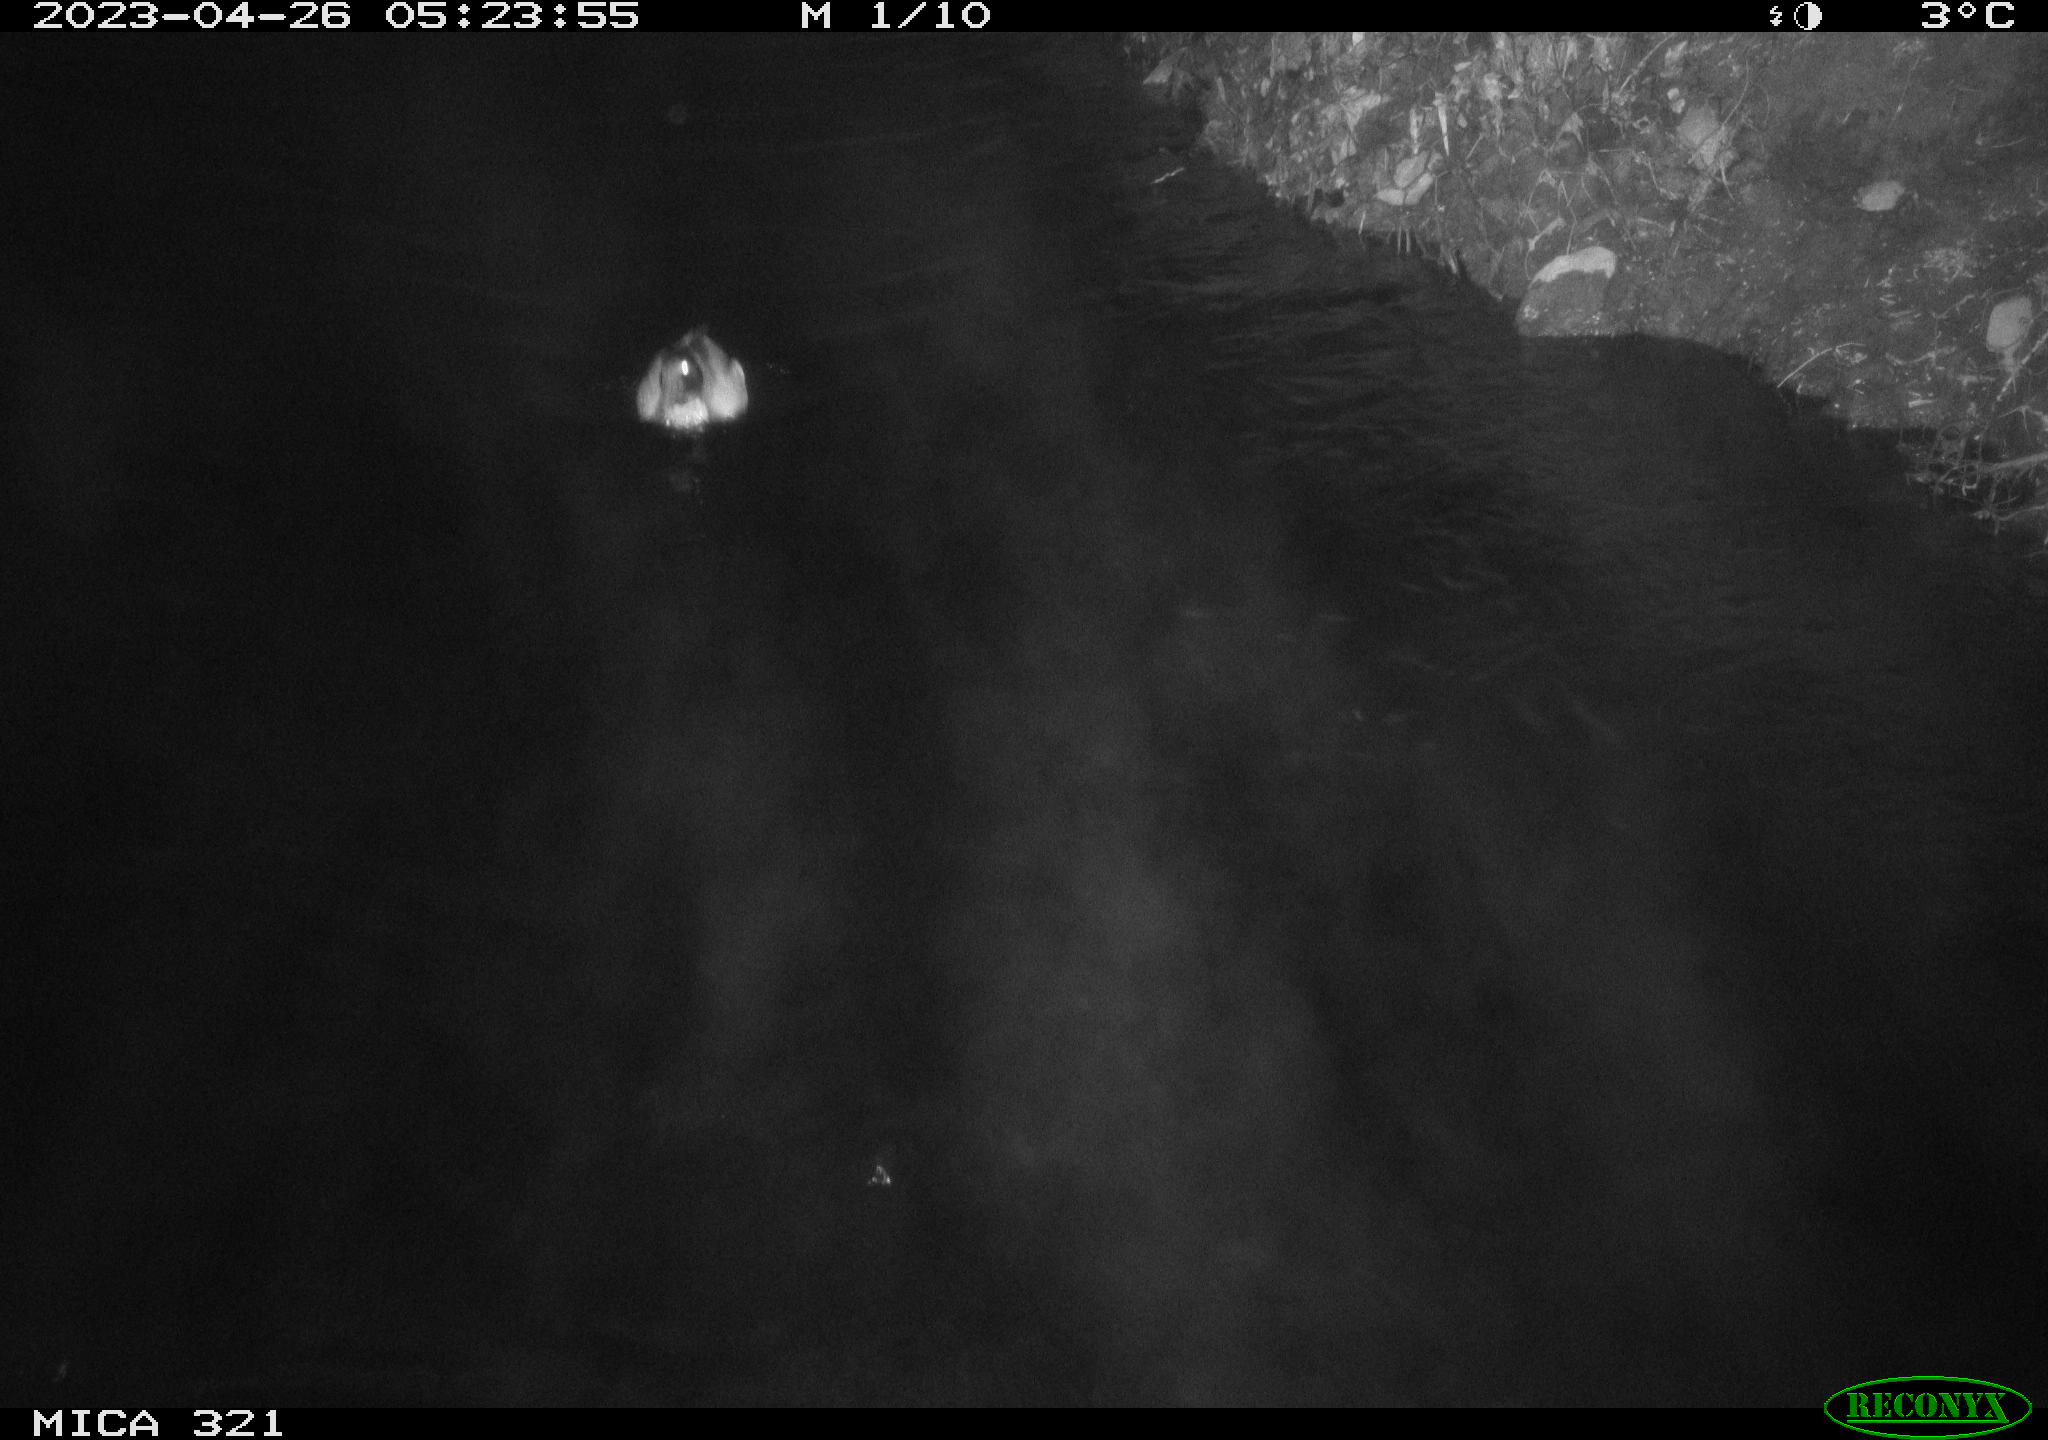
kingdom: Animalia
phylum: Chordata
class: Aves
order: Anseriformes
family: Anatidae
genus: Anas
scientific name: Anas
